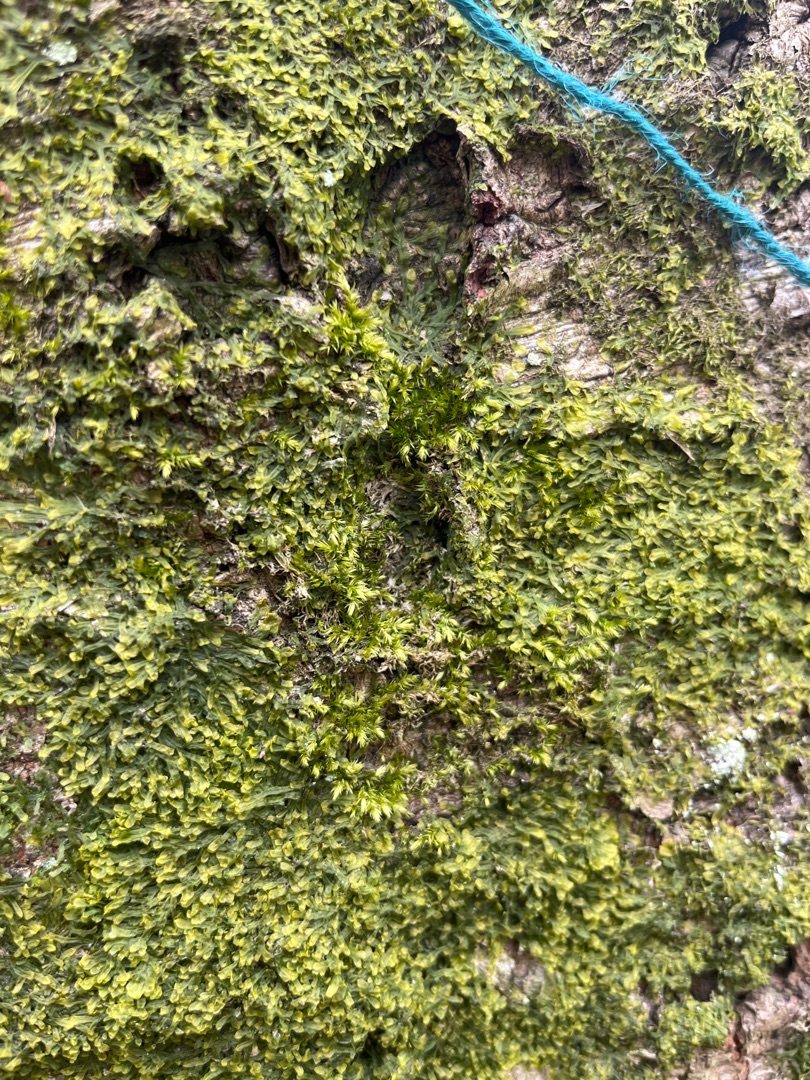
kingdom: Plantae
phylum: Marchantiophyta
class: Jungermanniopsida
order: Metzgeriales
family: Metzgeriaceae
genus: Metzgeria
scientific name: Metzgeria furcata
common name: Almindelig gaffelløv
